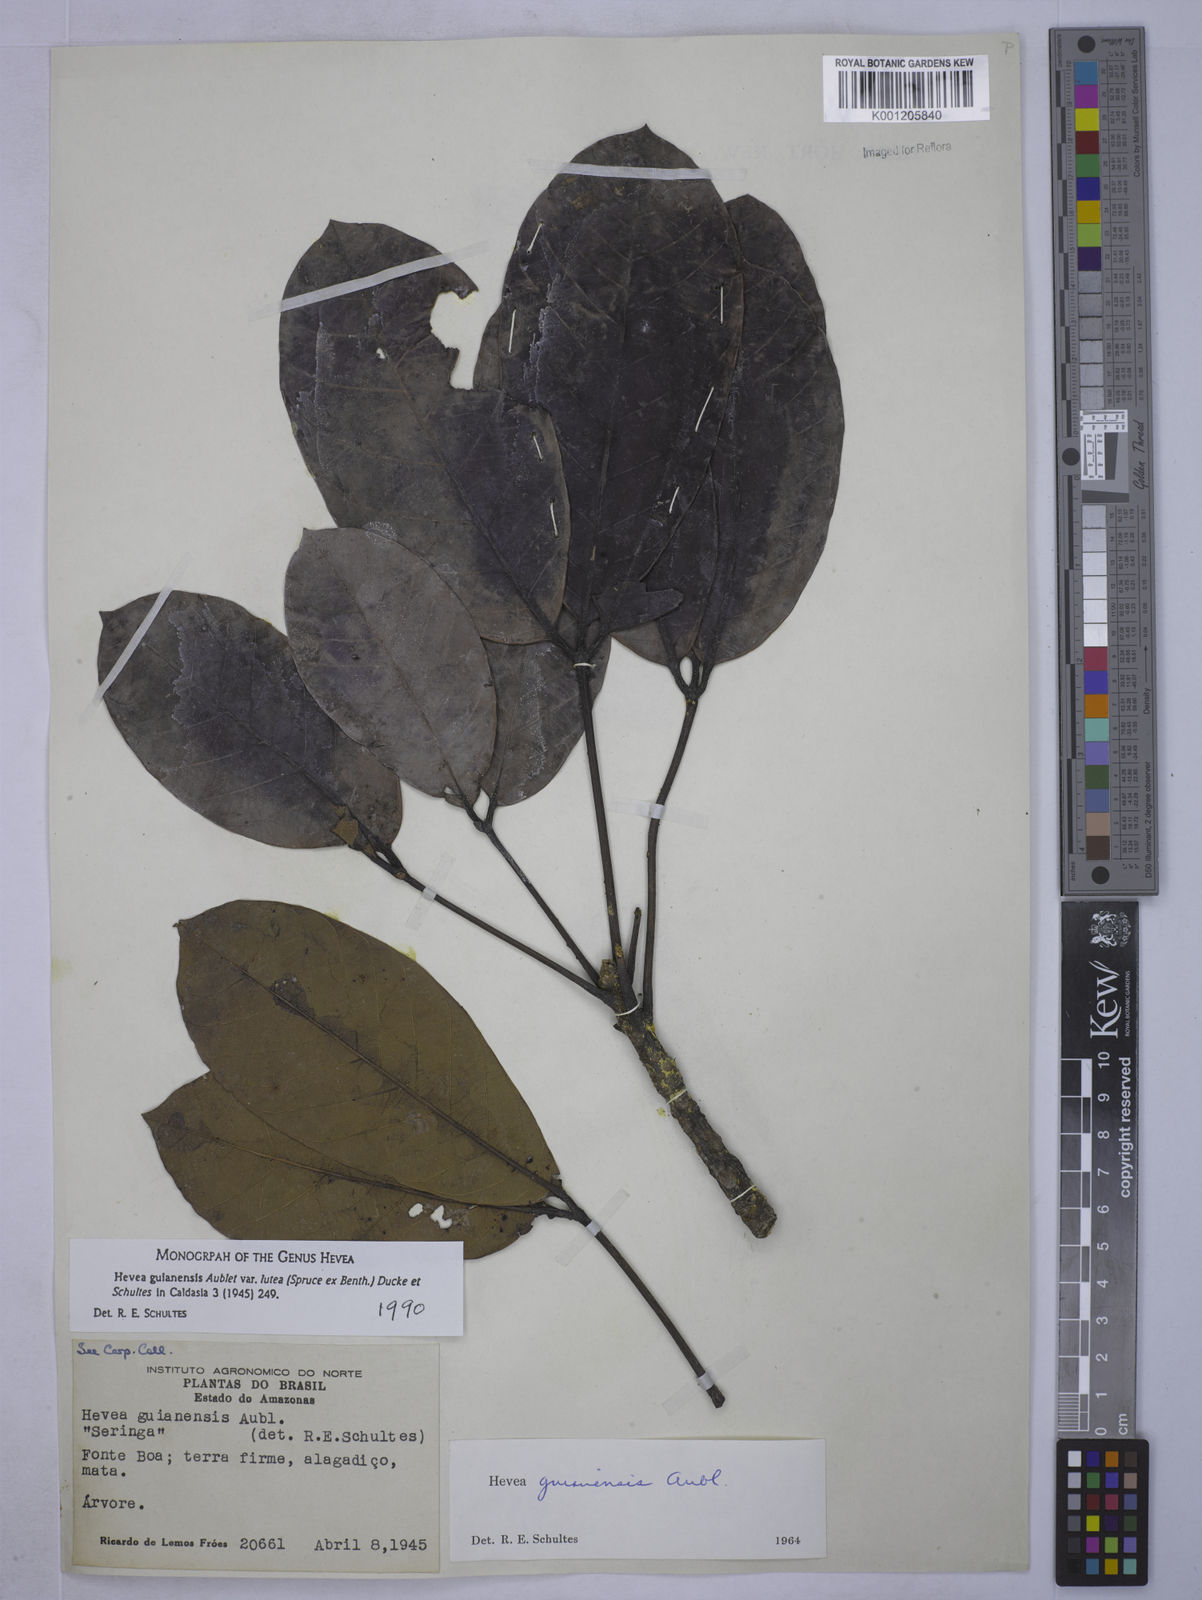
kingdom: Plantae
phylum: Tracheophyta
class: Magnoliopsida
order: Malpighiales
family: Euphorbiaceae
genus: Hevea
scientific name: Hevea guianensis
